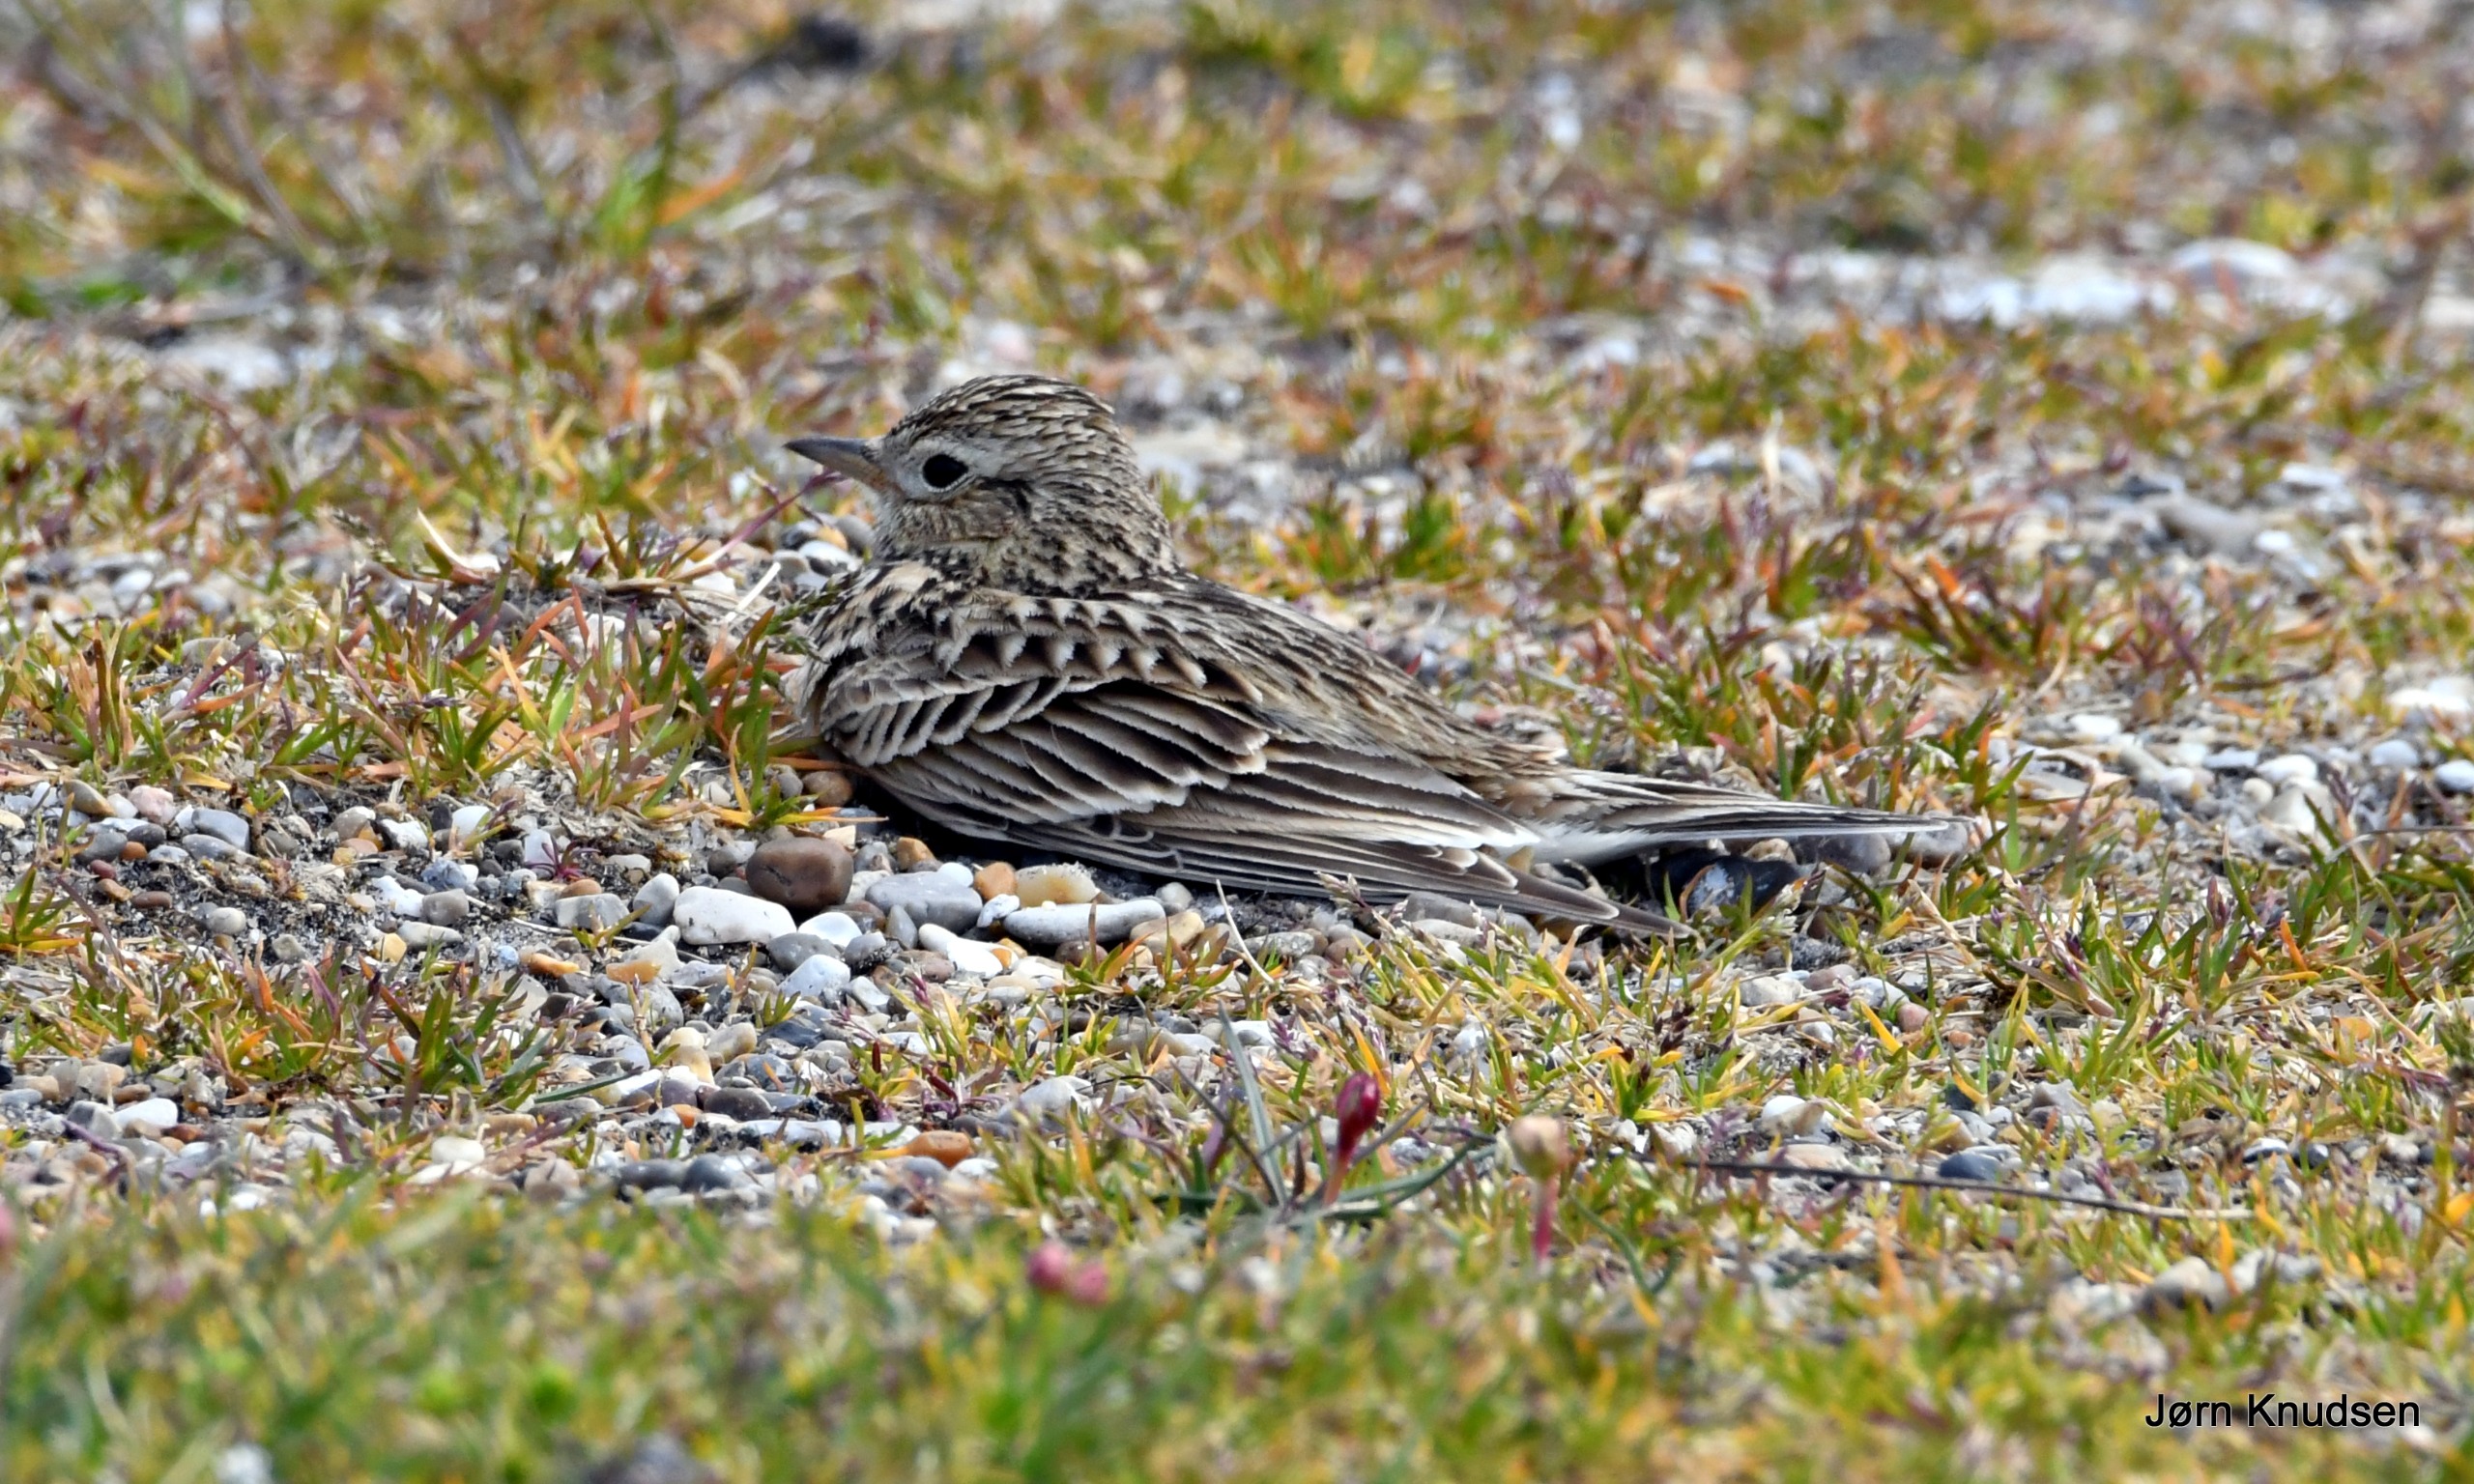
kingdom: Animalia
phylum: Chordata
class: Aves
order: Passeriformes
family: Alaudidae
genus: Alauda
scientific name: Alauda arvensis
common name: Sanglærke
